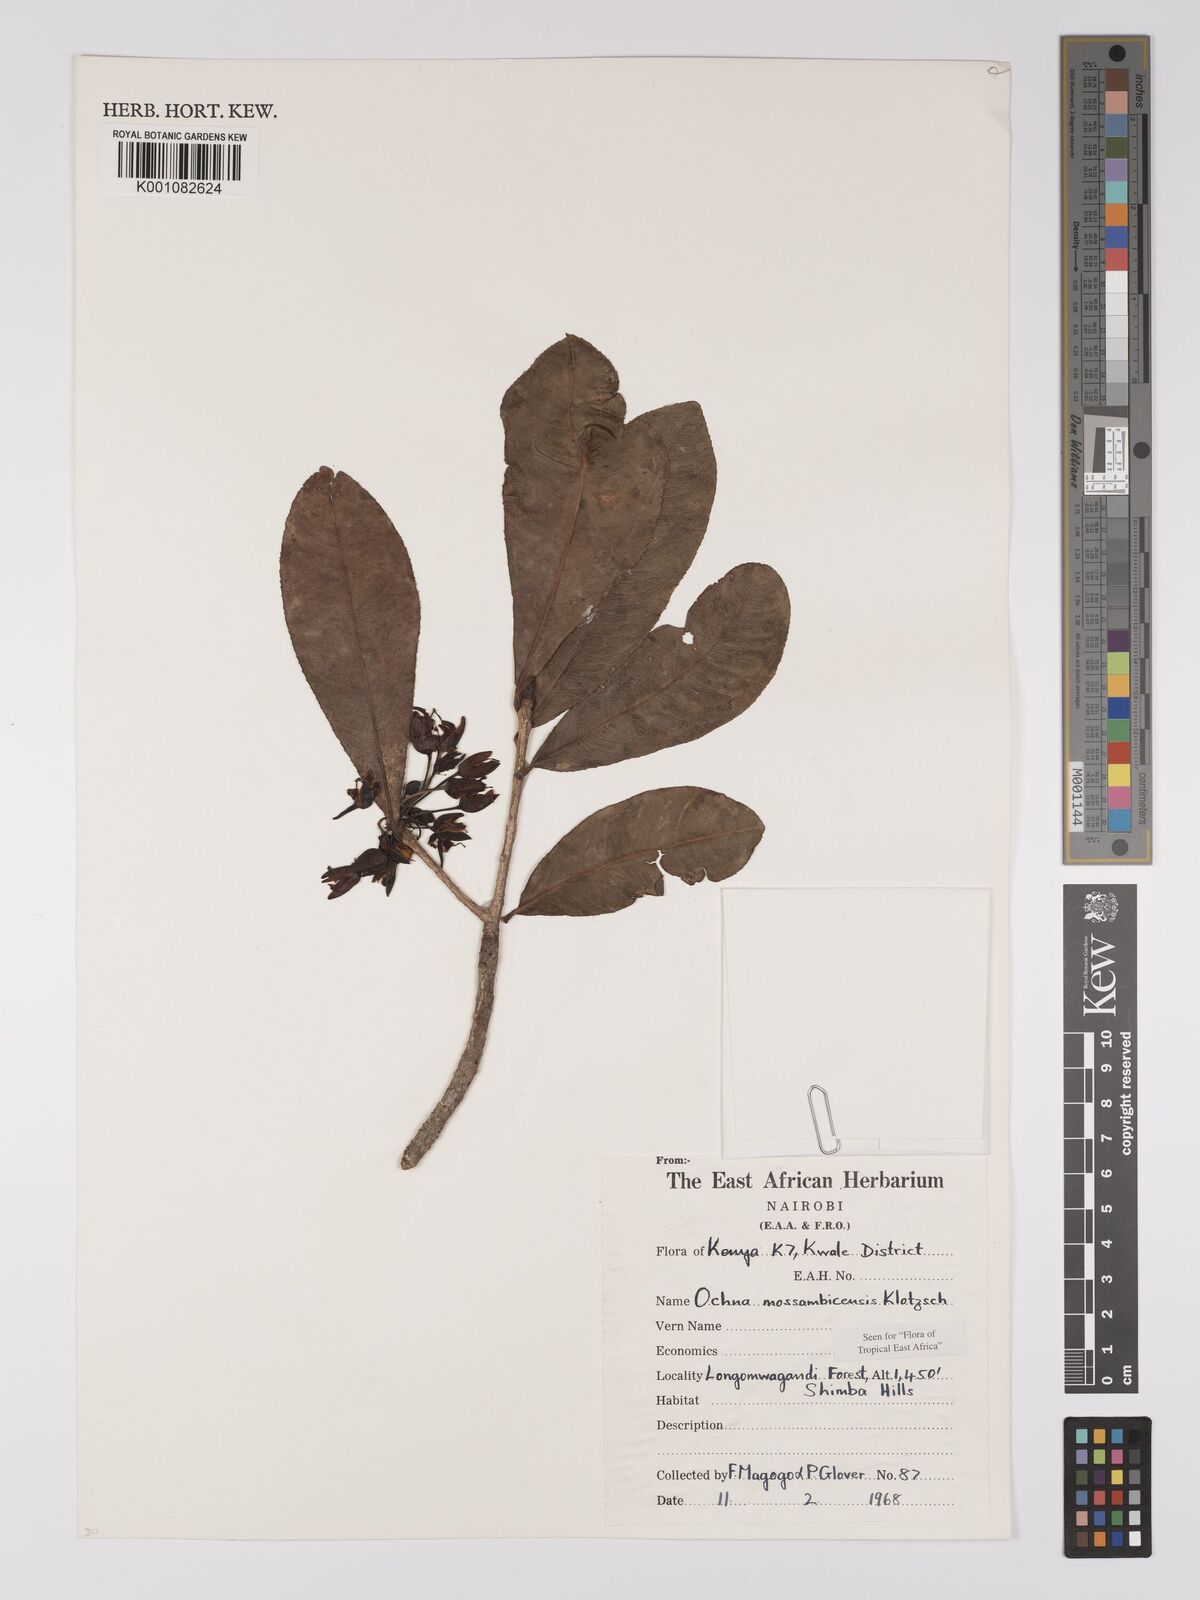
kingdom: Plantae
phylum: Tracheophyta
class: Magnoliopsida
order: Malpighiales
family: Ochnaceae
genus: Ochna
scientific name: Ochna atropurpurea
